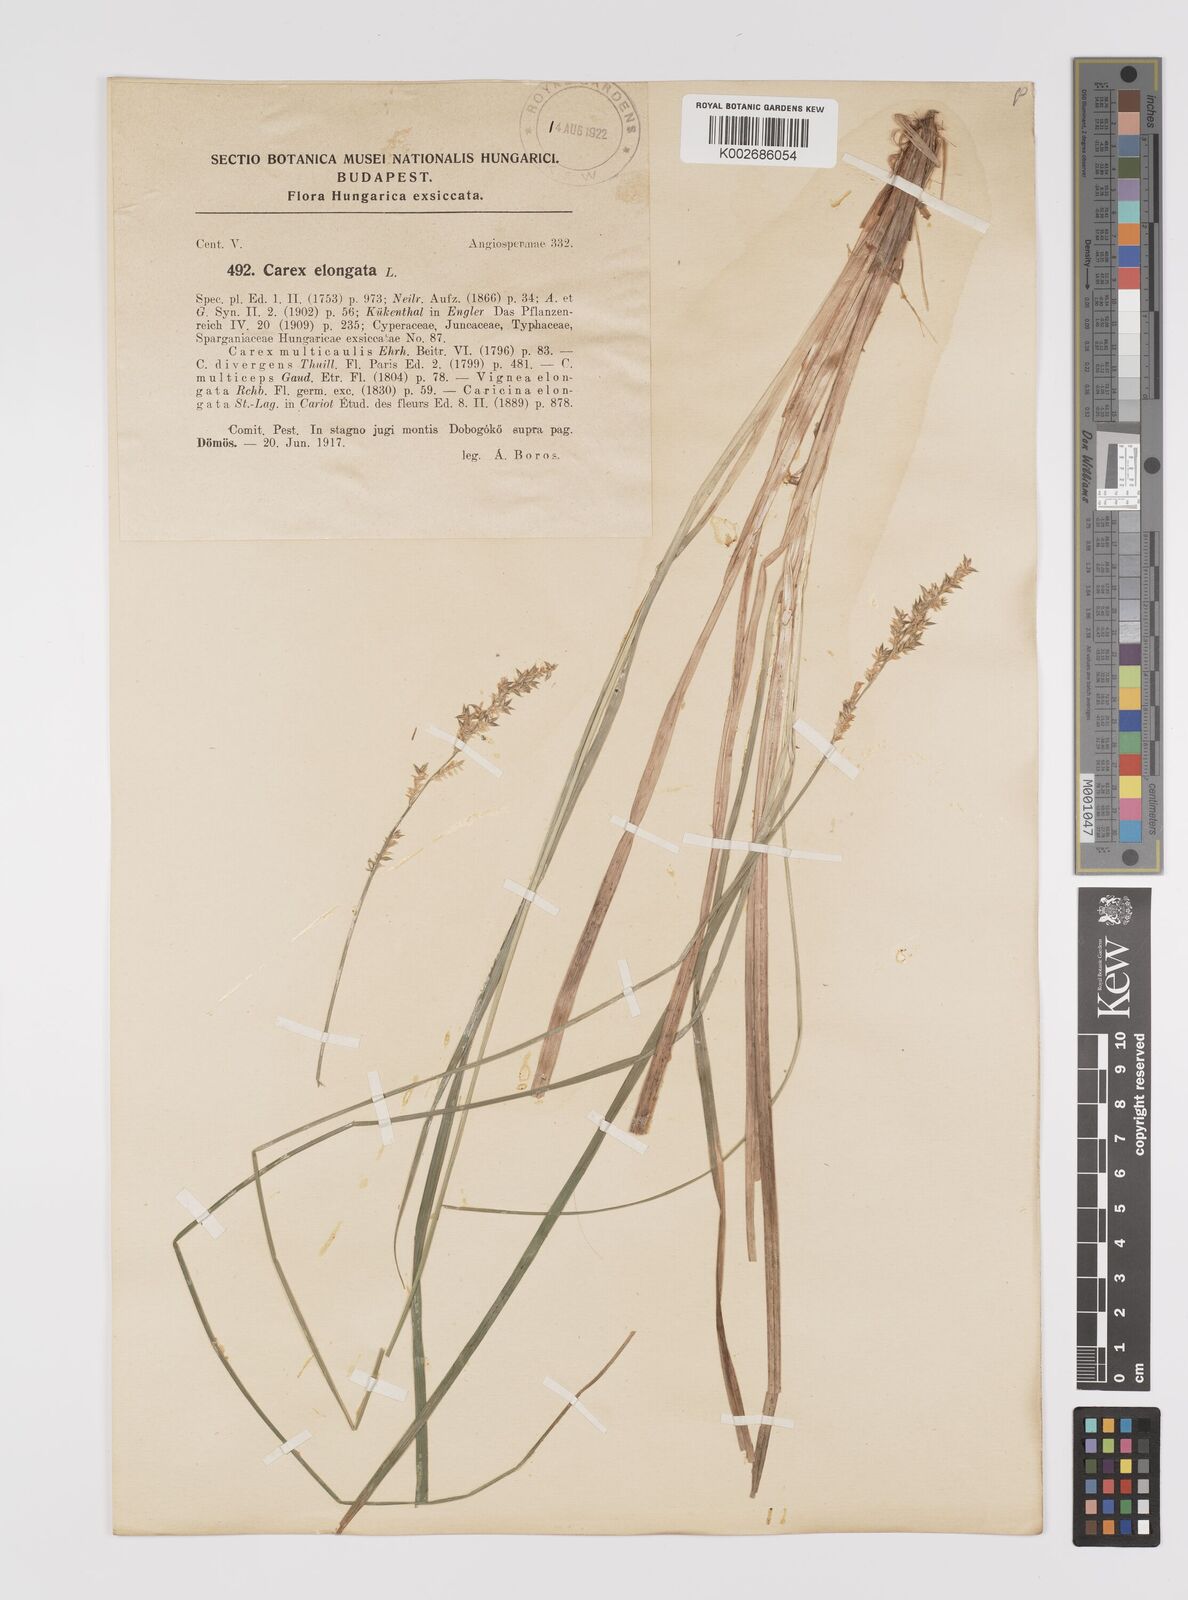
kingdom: Plantae
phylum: Tracheophyta
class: Liliopsida
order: Poales
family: Cyperaceae
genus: Carex
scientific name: Carex elongata
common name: Elongated sedge
